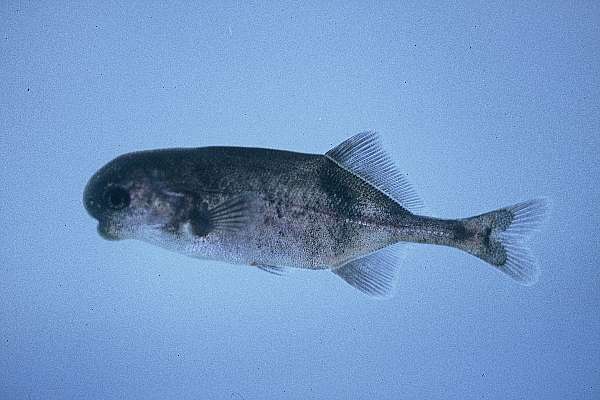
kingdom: Animalia
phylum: Chordata
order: Osteoglossiformes
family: Mormyridae
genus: Cyphomyrus
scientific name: Cyphomyrus discorhynchus
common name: Zambezi parrotfish
